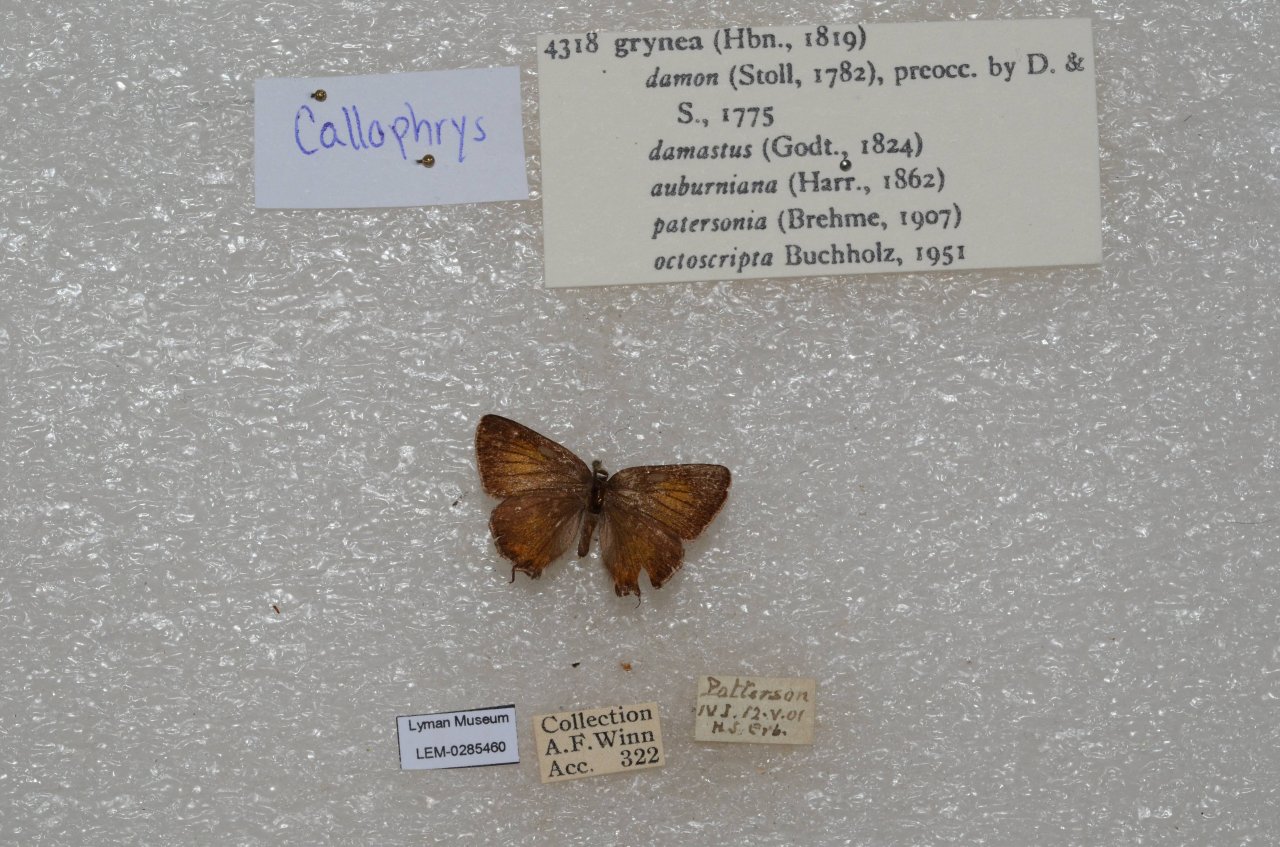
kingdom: Animalia
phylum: Arthropoda
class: Insecta
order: Lepidoptera
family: Lycaenidae
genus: Mitoura
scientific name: Mitoura gryneus
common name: Juniper Hairstreak
